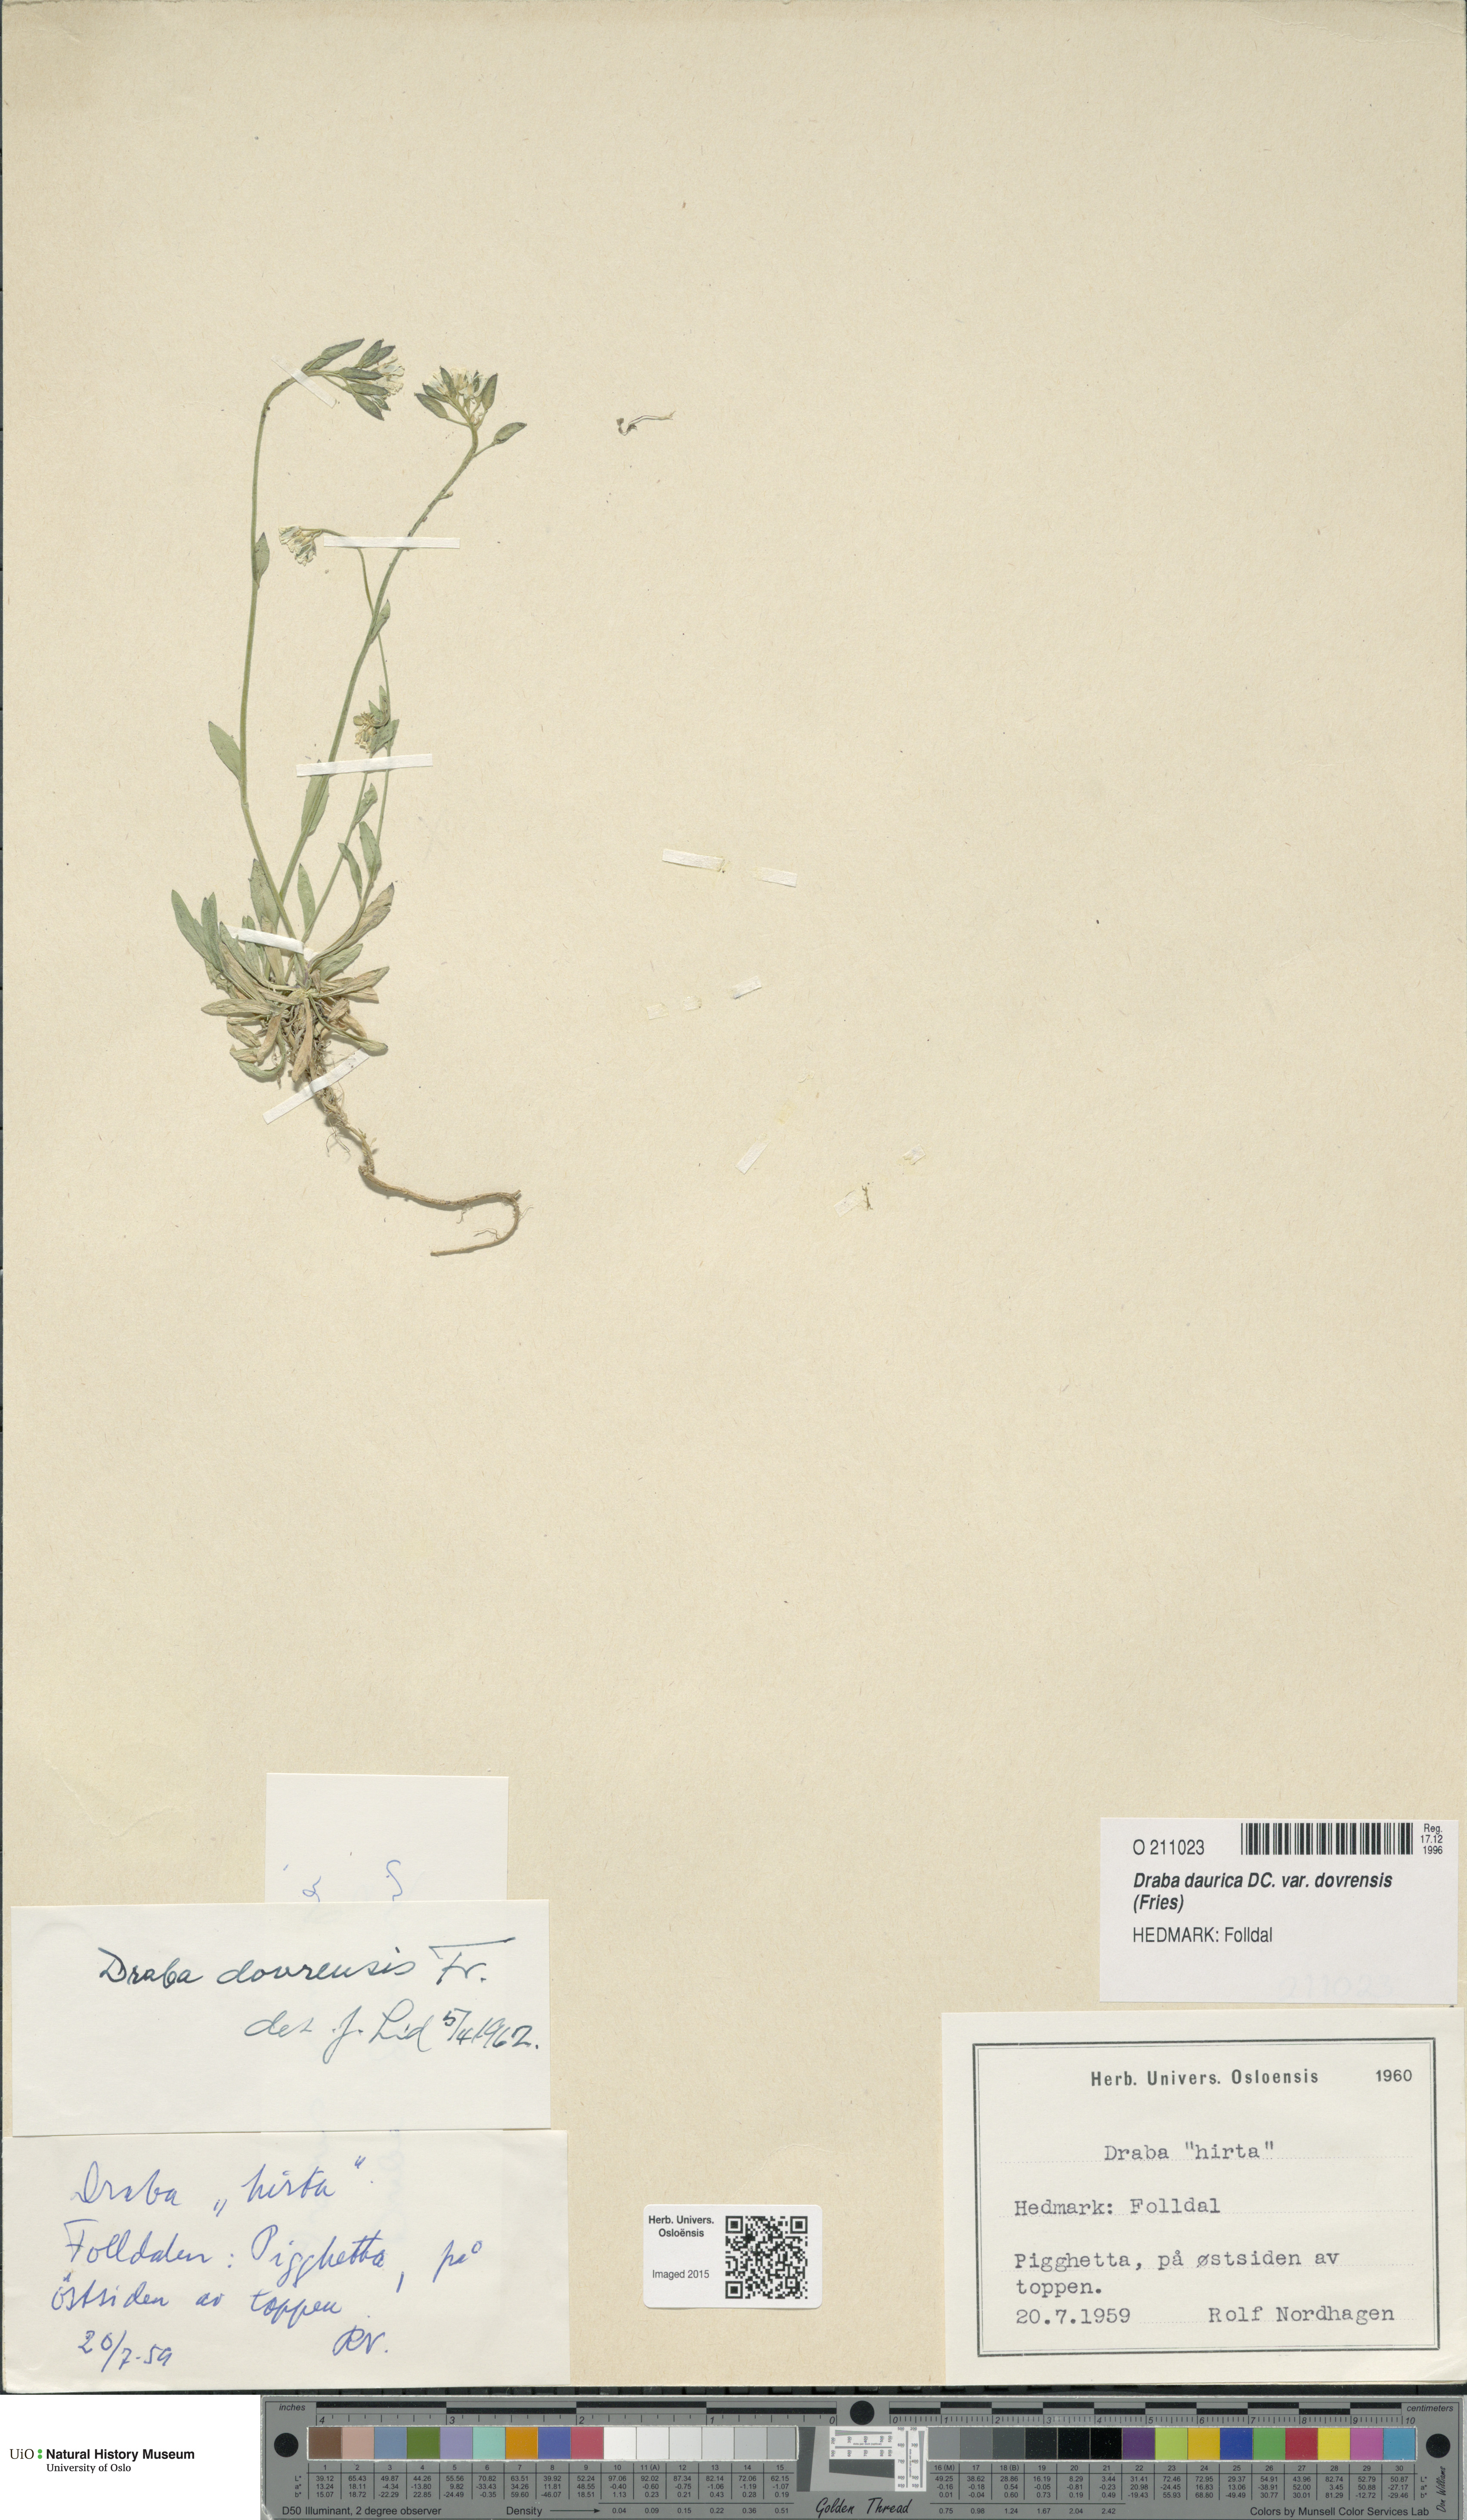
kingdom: Plantae
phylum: Tracheophyta
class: Magnoliopsida
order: Brassicales
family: Brassicaceae
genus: Draba
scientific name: Draba glabella
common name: Glaucous draba
